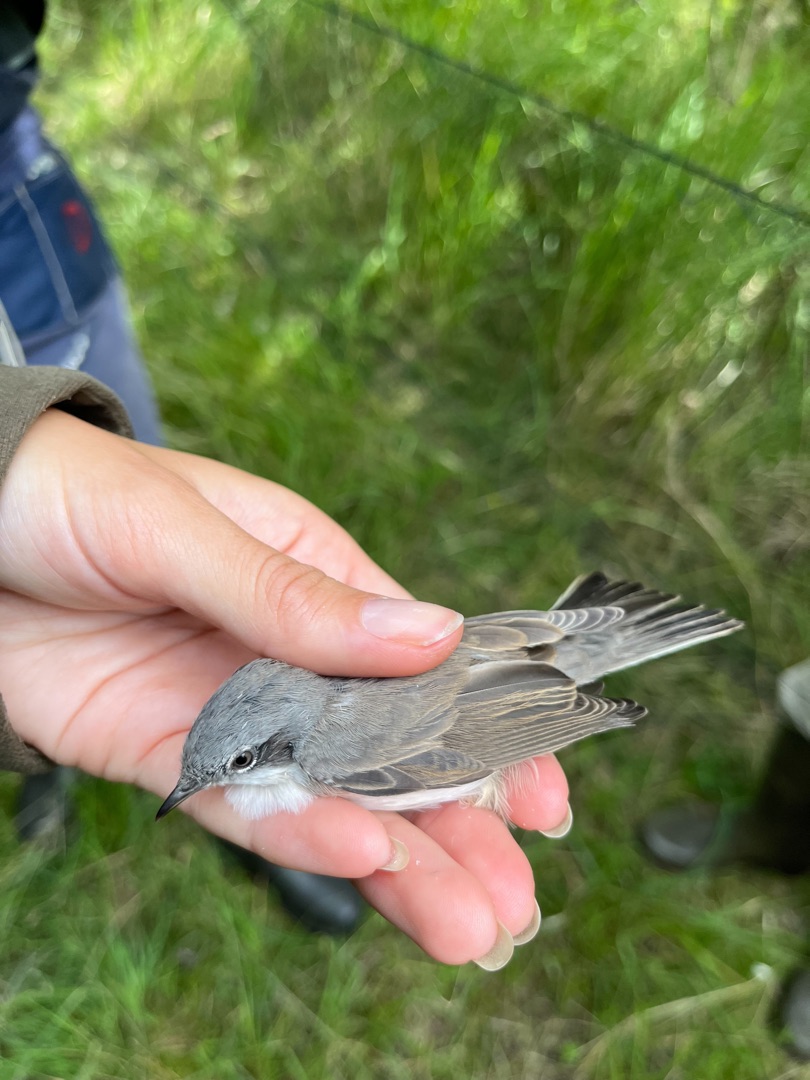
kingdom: Animalia
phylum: Chordata
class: Aves
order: Passeriformes
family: Sylviidae
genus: Sylvia
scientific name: Sylvia curruca
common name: Gærdesanger
